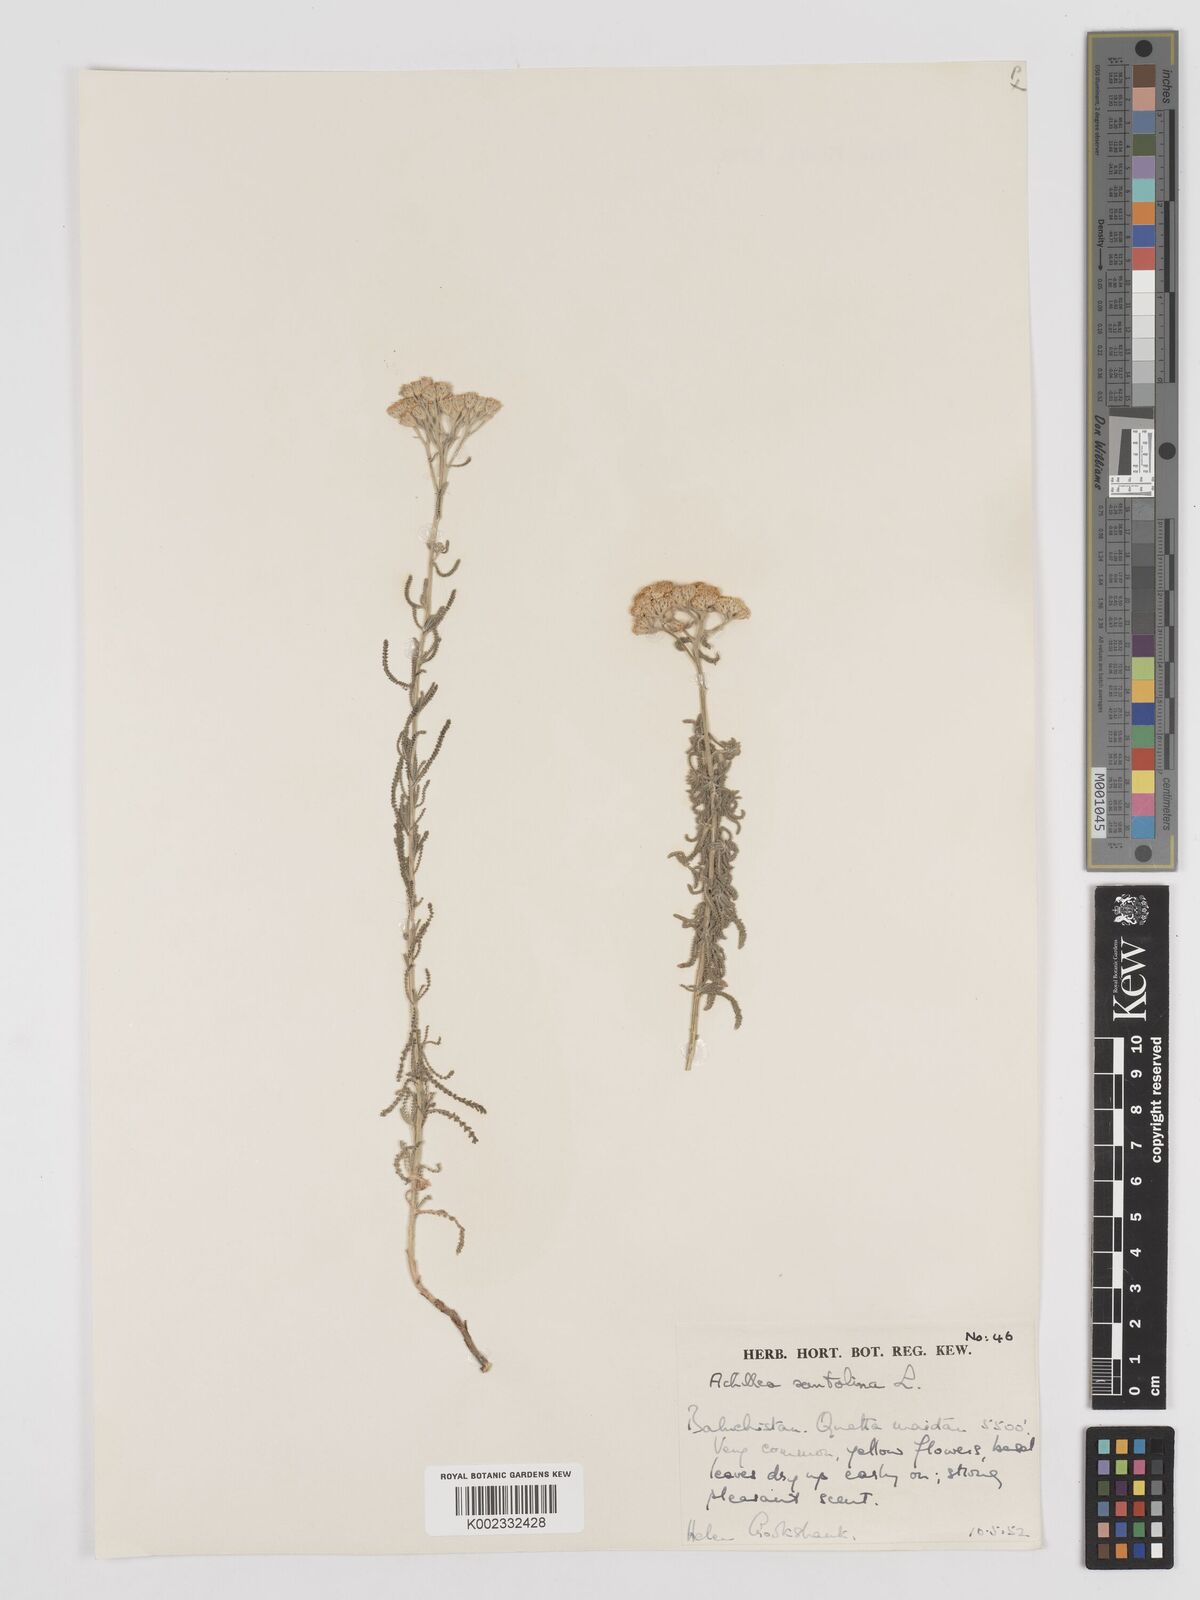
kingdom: Plantae
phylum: Tracheophyta
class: Magnoliopsida
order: Asterales
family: Asteraceae
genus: Achillea
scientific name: Achillea tenuifolia
